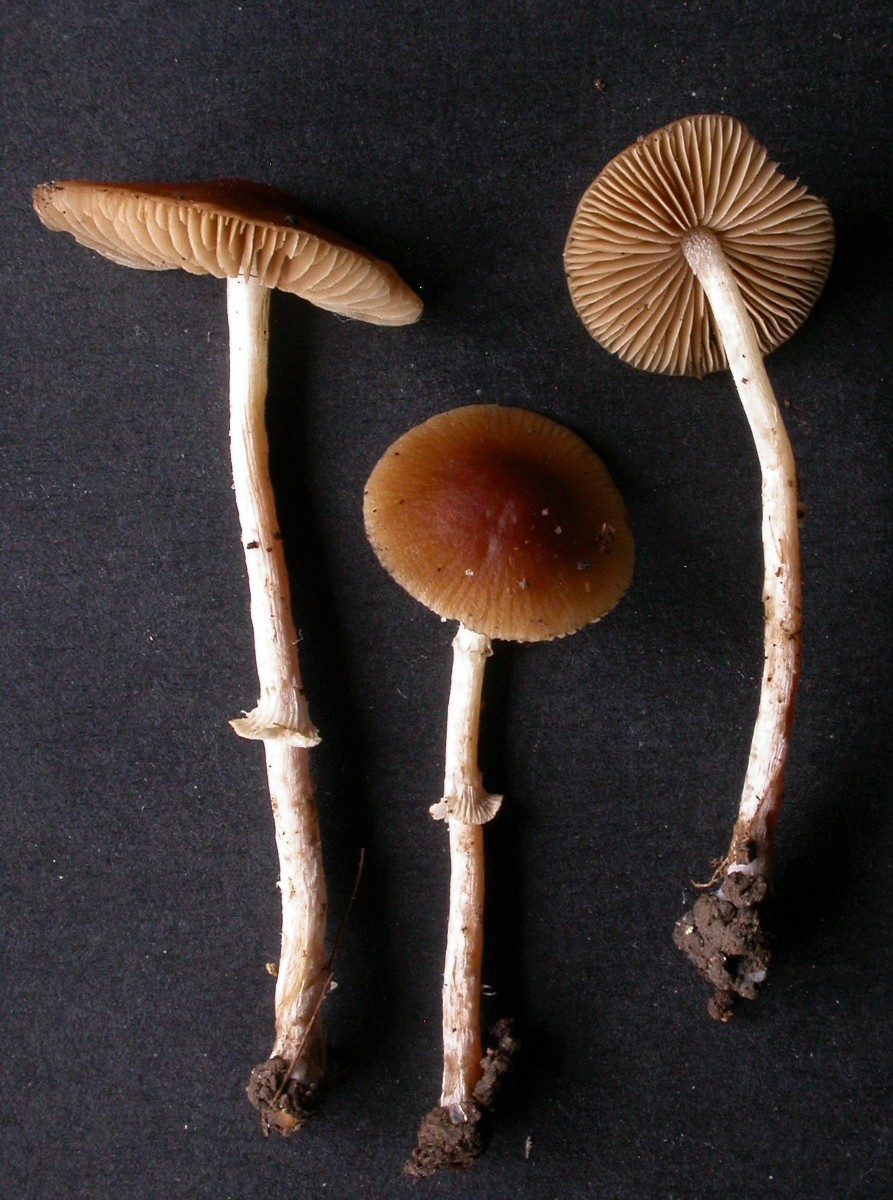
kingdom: Fungi
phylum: Basidiomycota
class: Agaricomycetes
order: Agaricales
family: Bolbitiaceae
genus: Conocybe
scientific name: Conocybe arrhenii
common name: ring-dansehat
